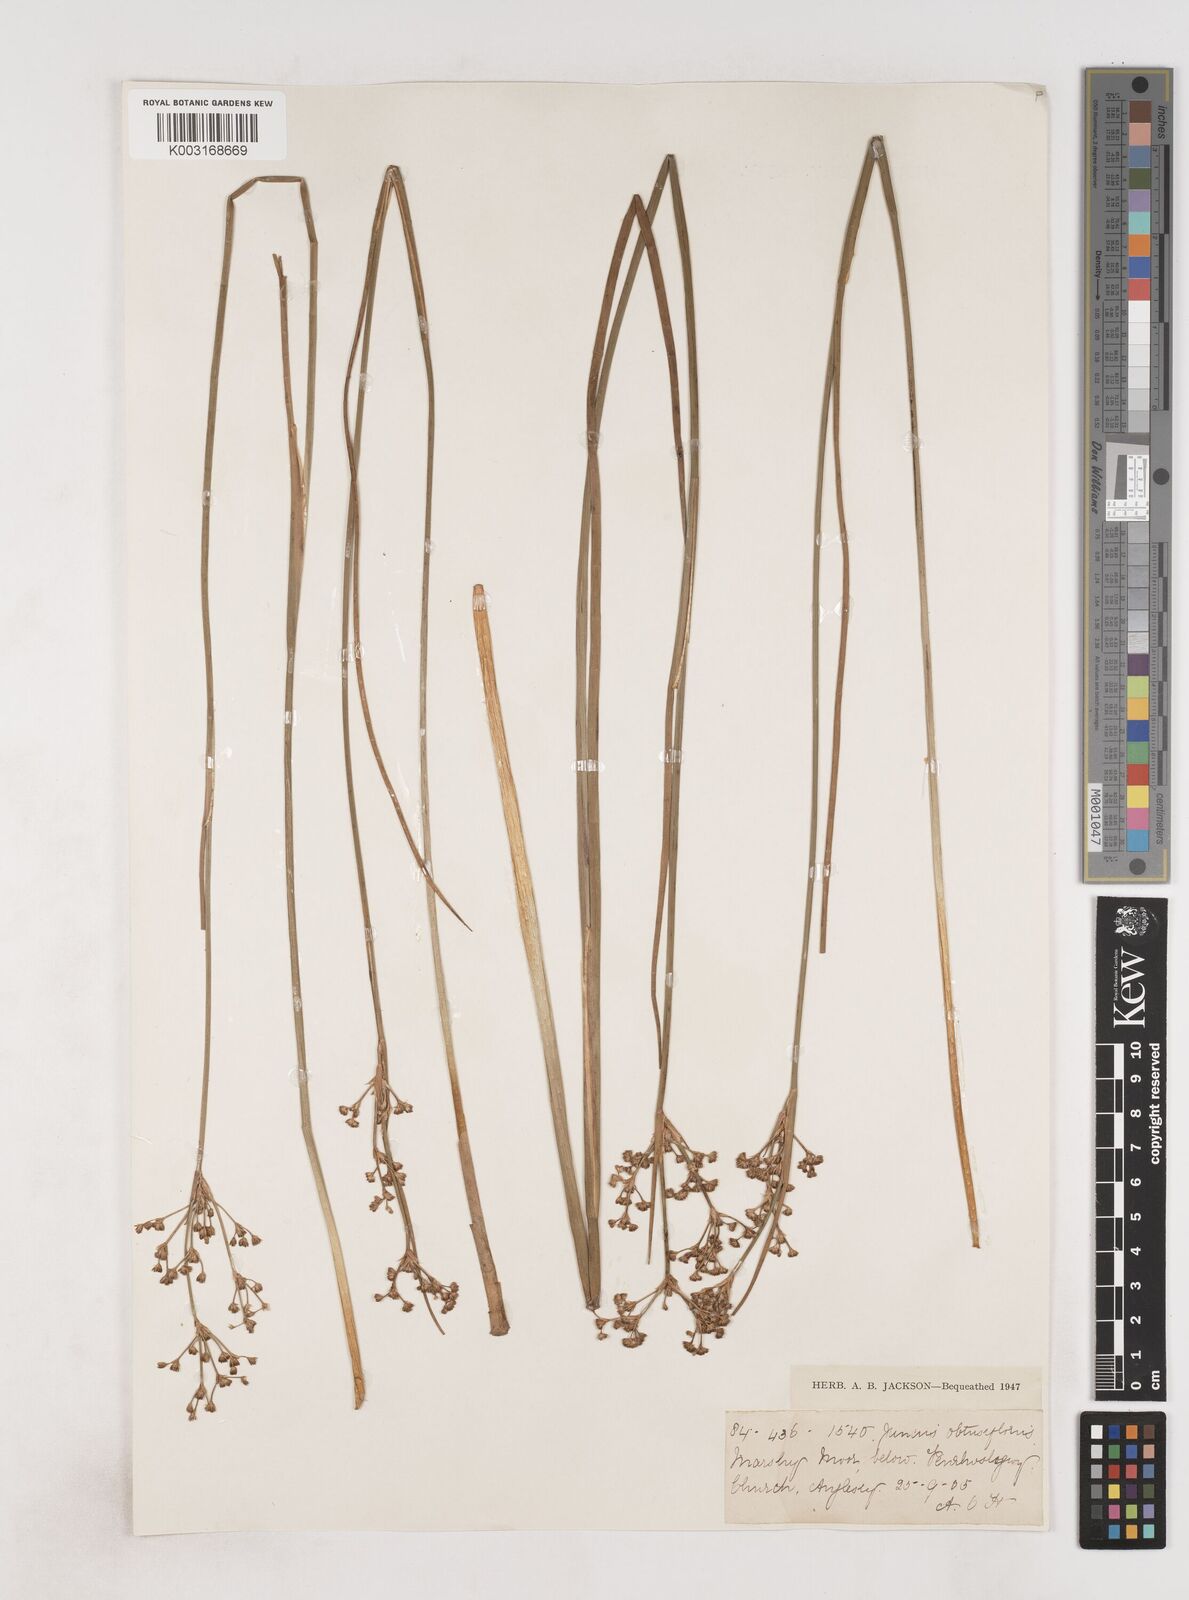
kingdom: Plantae
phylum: Tracheophyta
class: Liliopsida
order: Poales
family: Juncaceae
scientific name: Juncaceae
